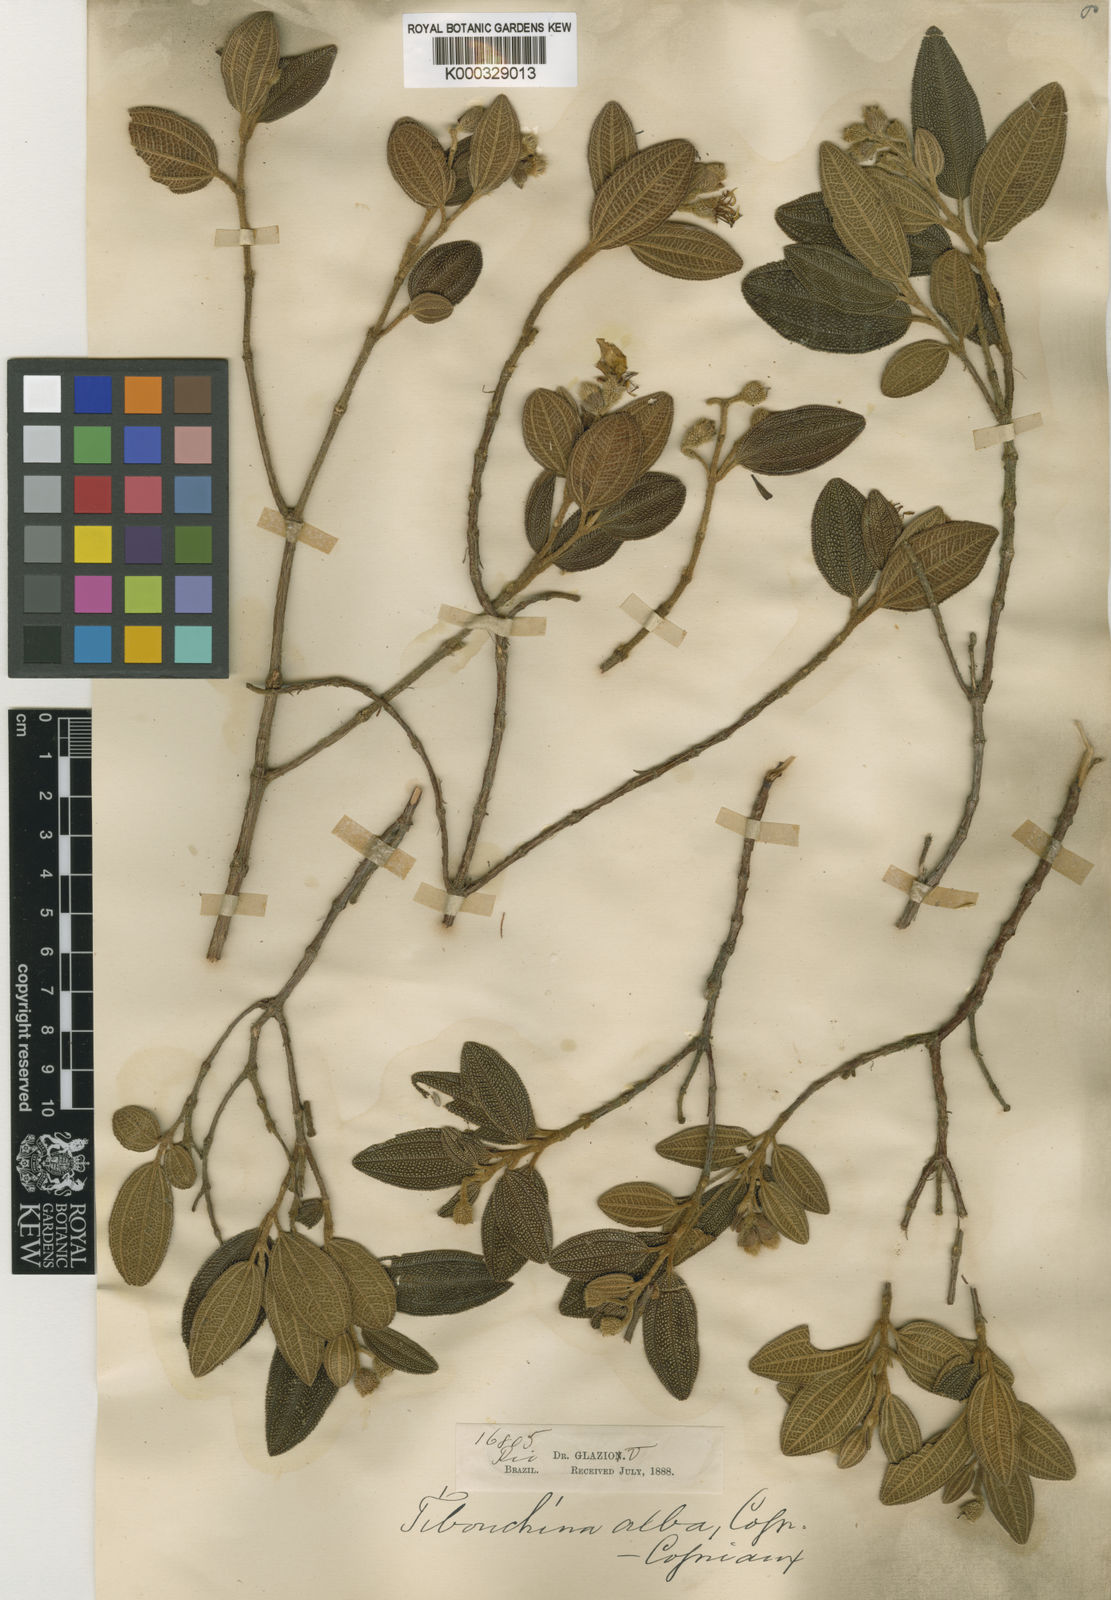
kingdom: Plantae
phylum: Tracheophyta
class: Magnoliopsida
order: Myrtales
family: Melastomataceae
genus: Pleroma
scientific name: Pleroma echinatum
